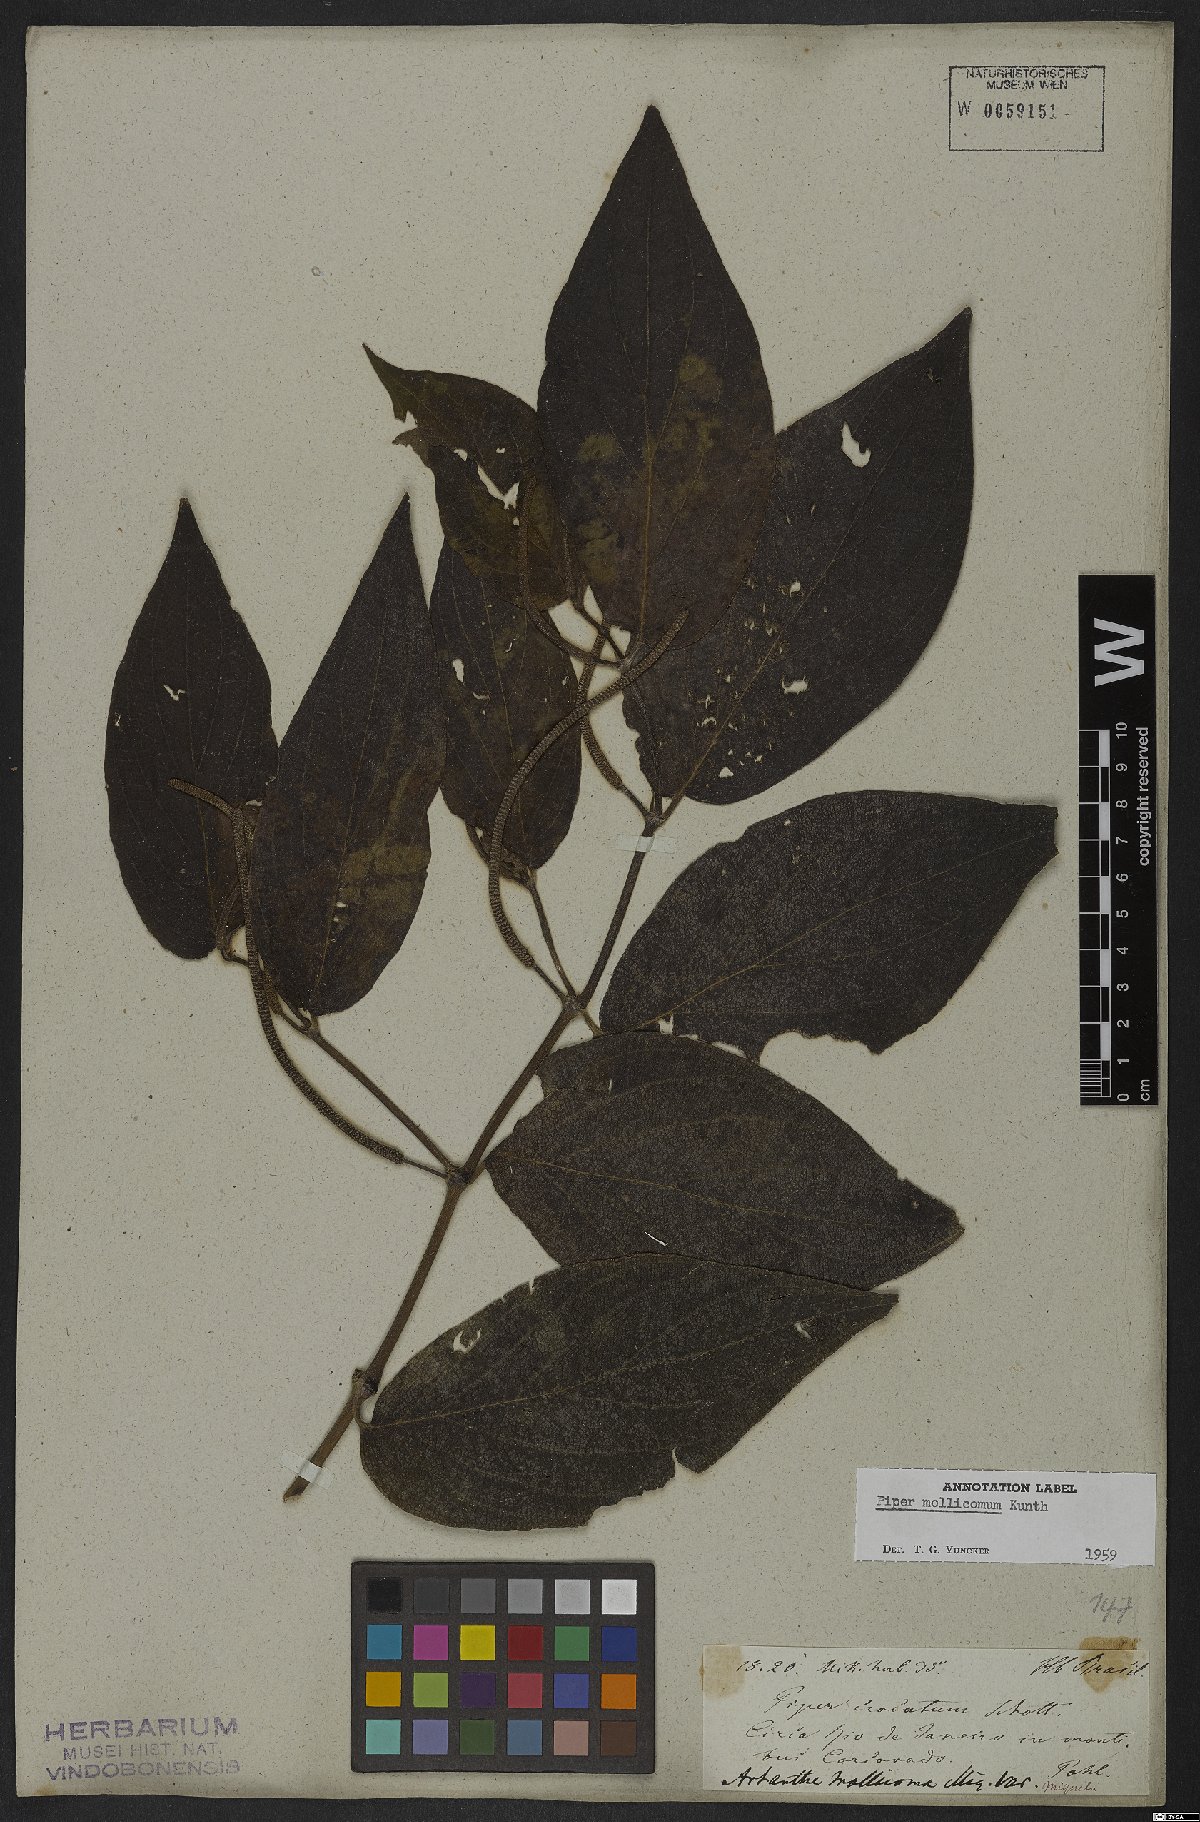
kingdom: Plantae
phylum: Tracheophyta
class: Magnoliopsida
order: Piperales
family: Piperaceae
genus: Piper
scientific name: Piper mollicomum
